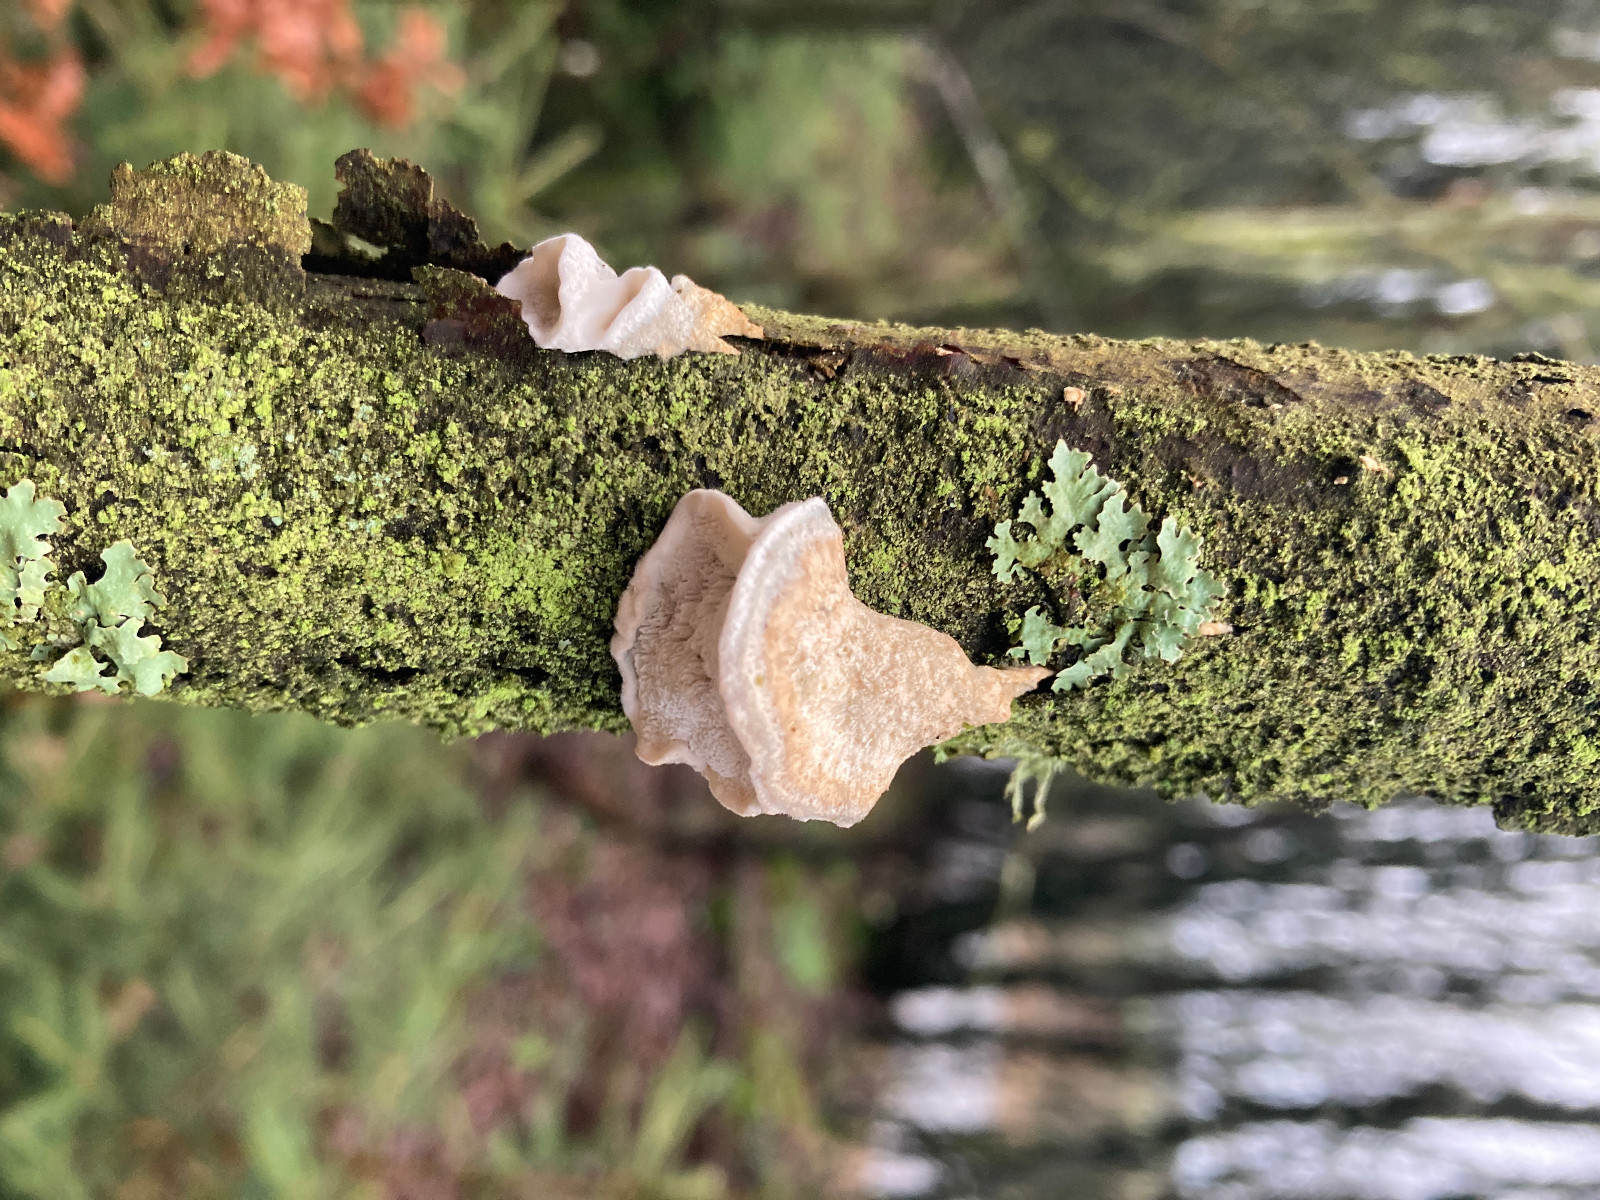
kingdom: Fungi
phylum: Basidiomycota
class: Agaricomycetes
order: Polyporales
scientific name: Polyporales
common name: poresvampordenen
